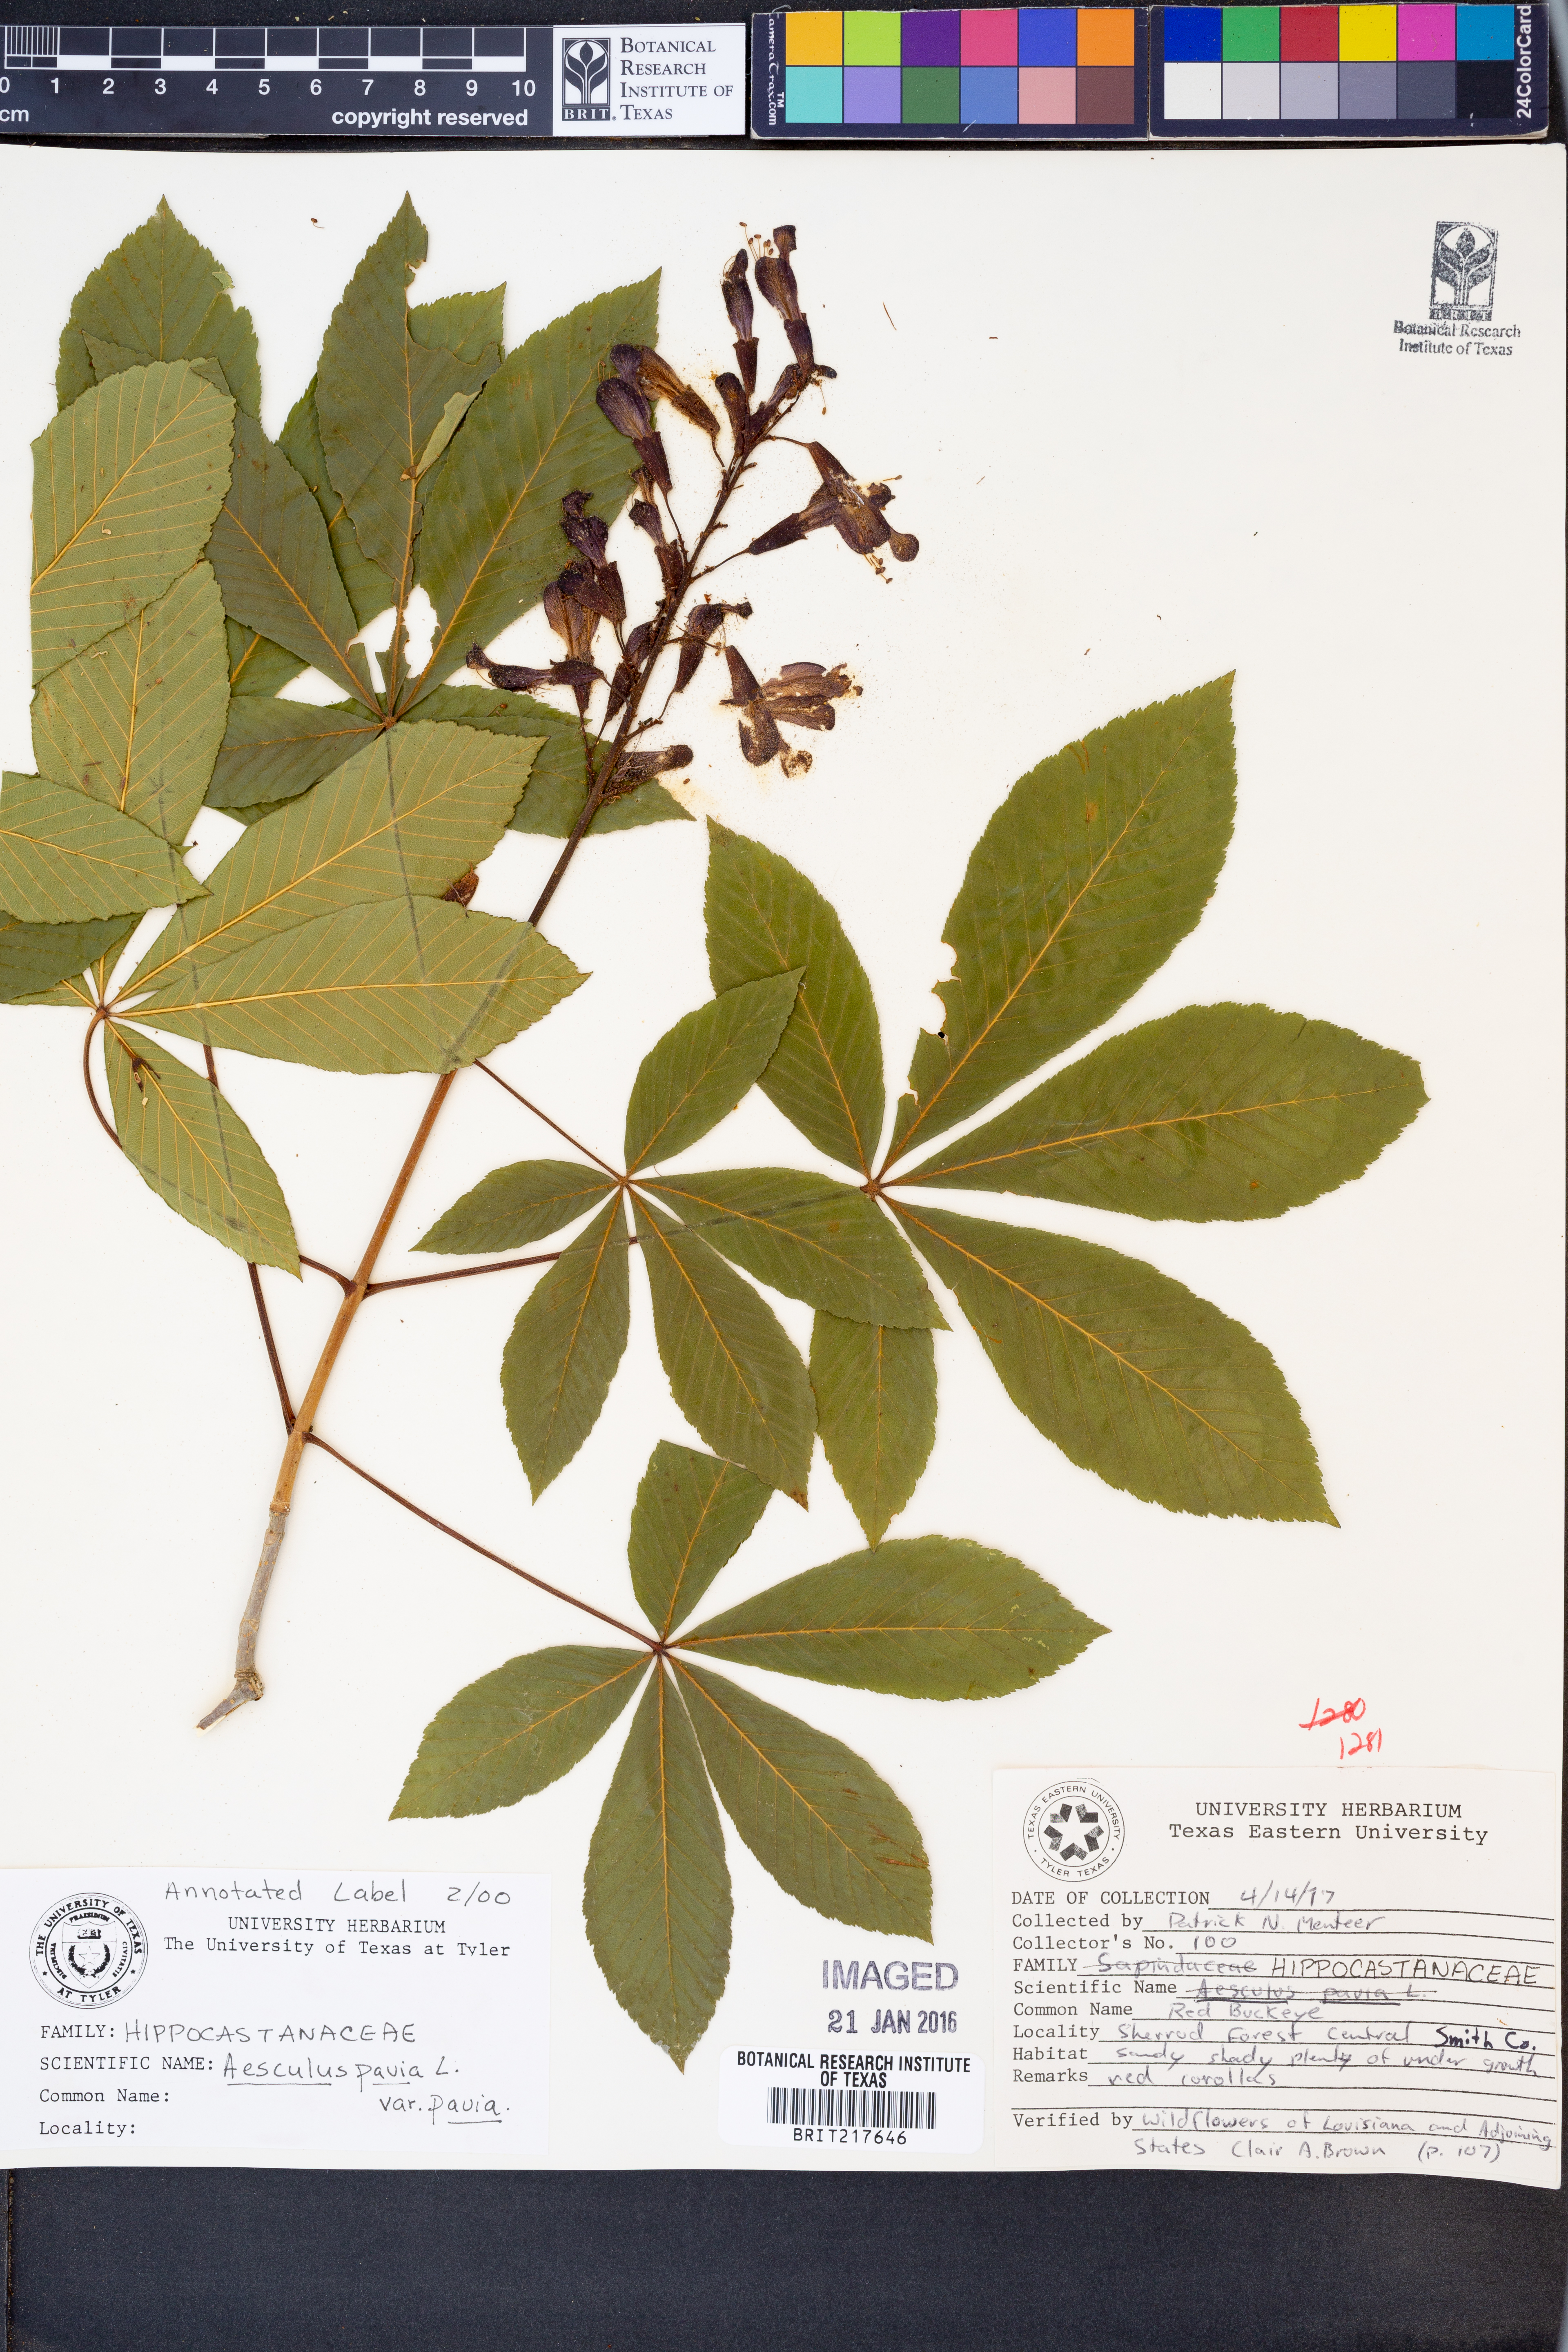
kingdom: Plantae
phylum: Tracheophyta
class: Magnoliopsida
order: Sapindales
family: Sapindaceae
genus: Aesculus
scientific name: Aesculus pavia
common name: Red buckeye
